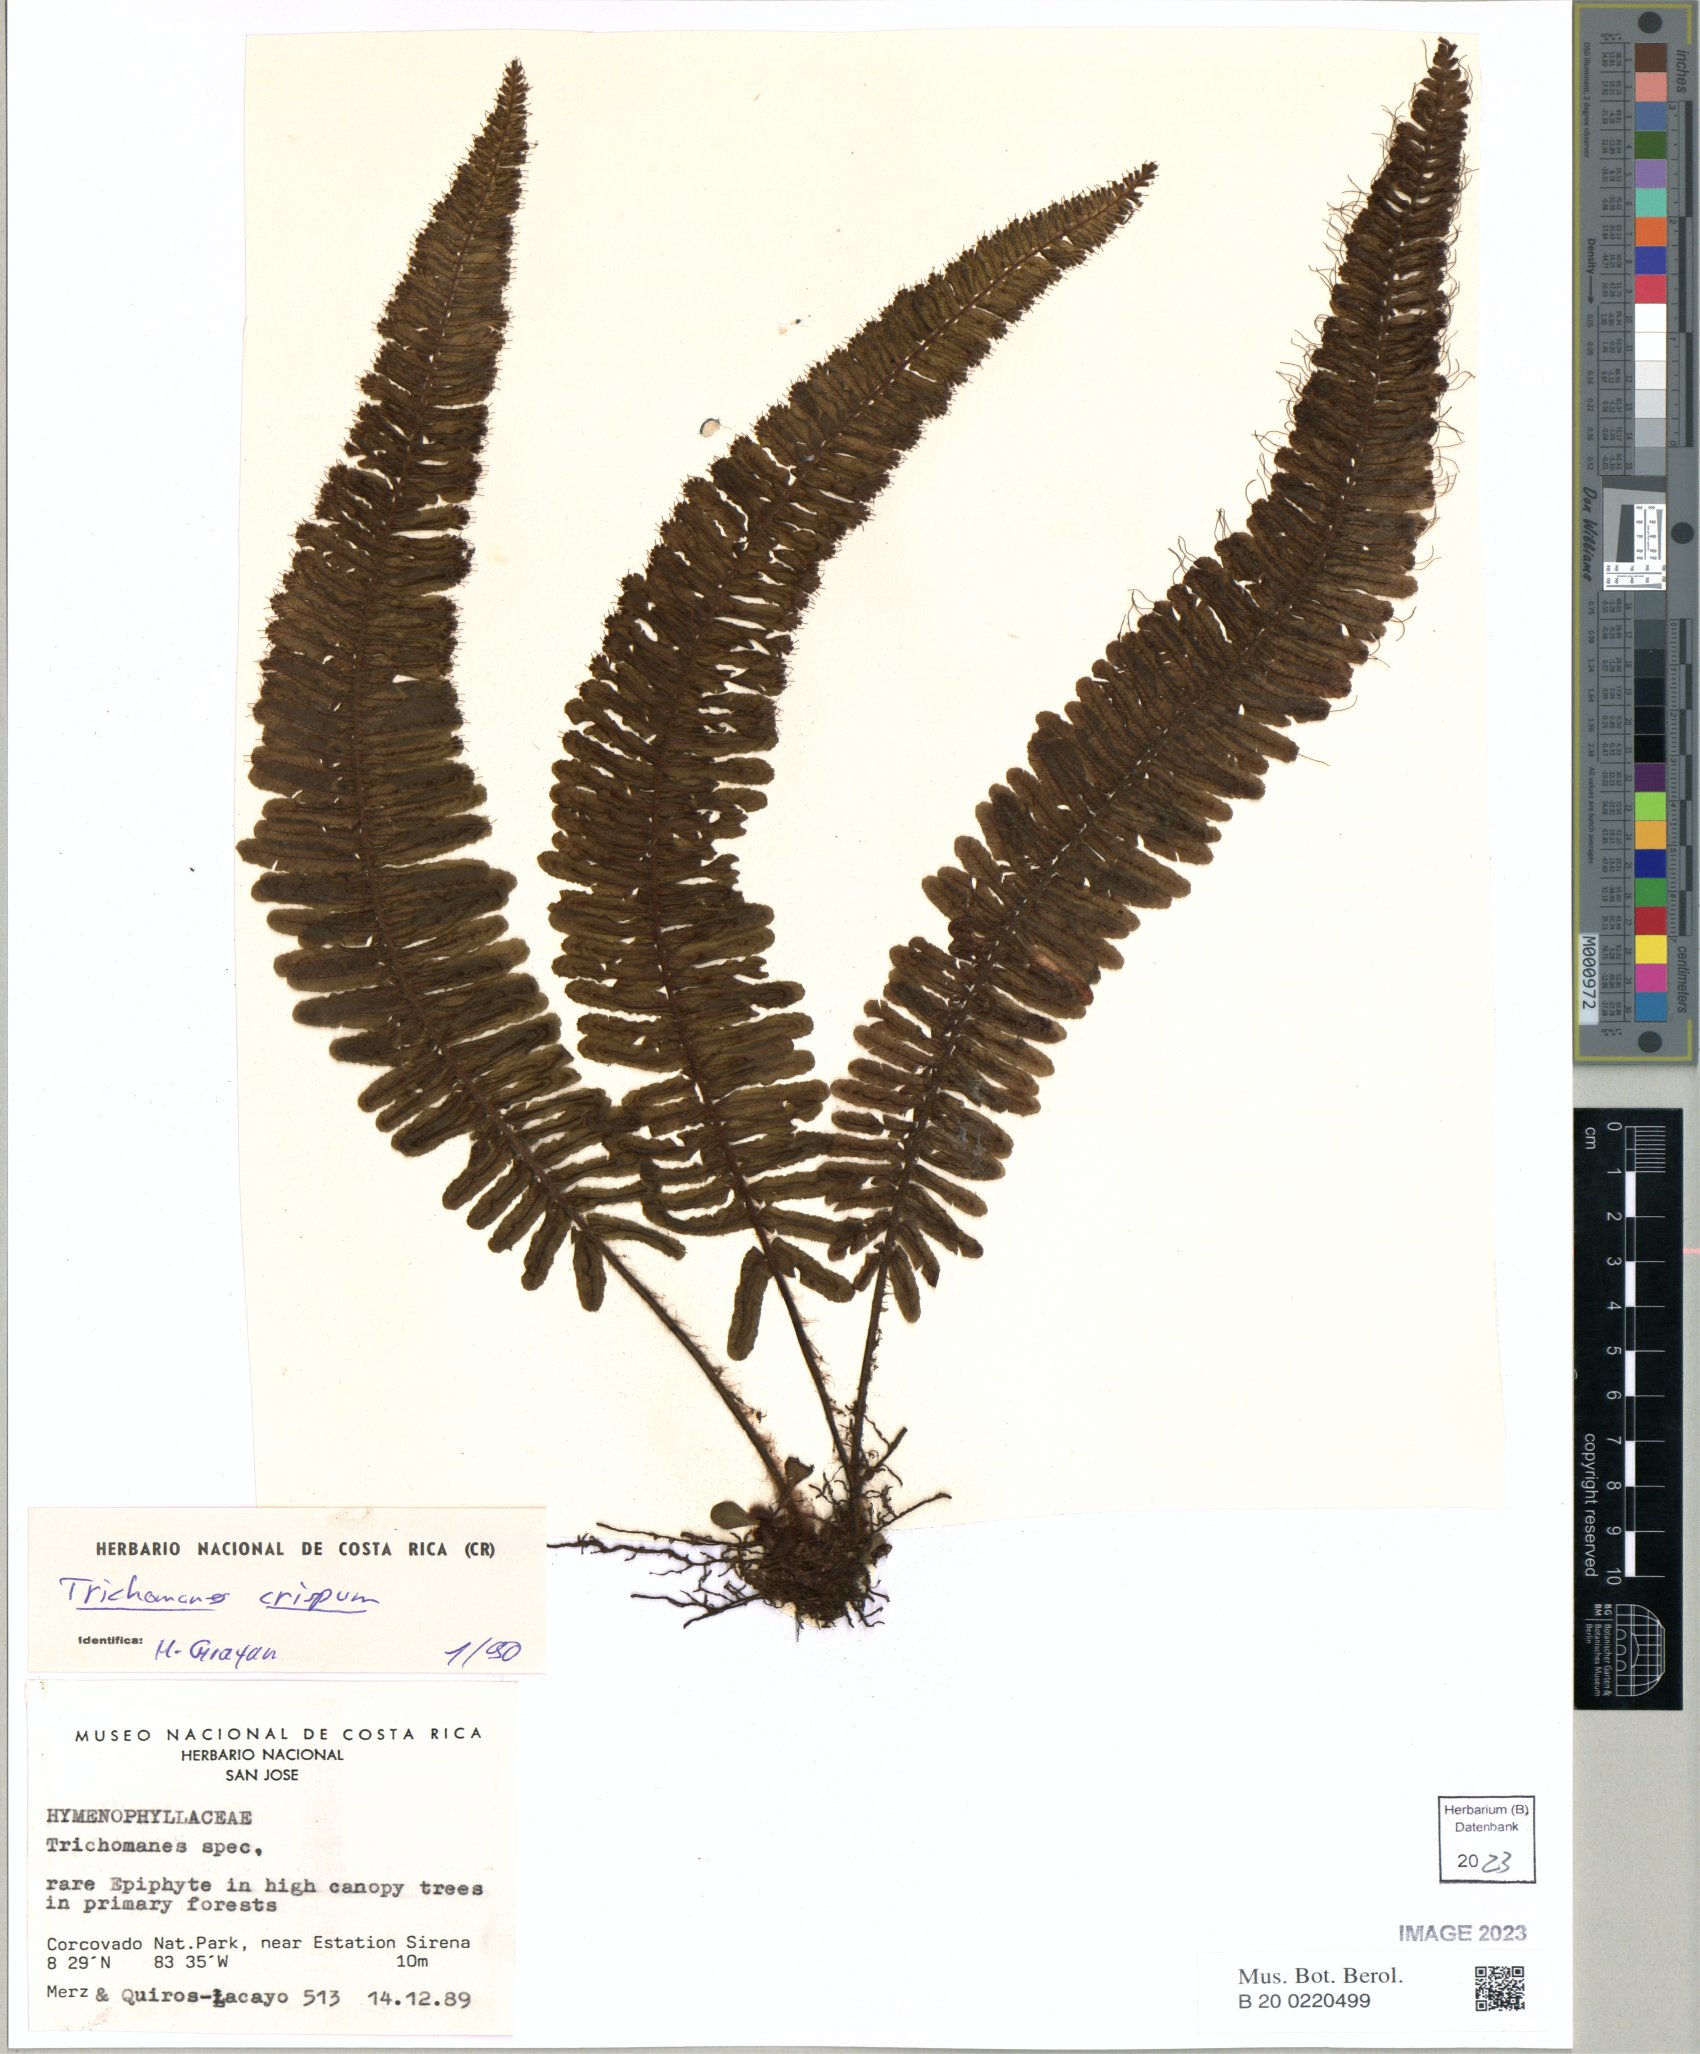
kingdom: Plantae
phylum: Tracheophyta
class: Polypodiopsida
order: Hymenophyllales
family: Hymenophyllaceae
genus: Trichomanes
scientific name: Trichomanes crispum
